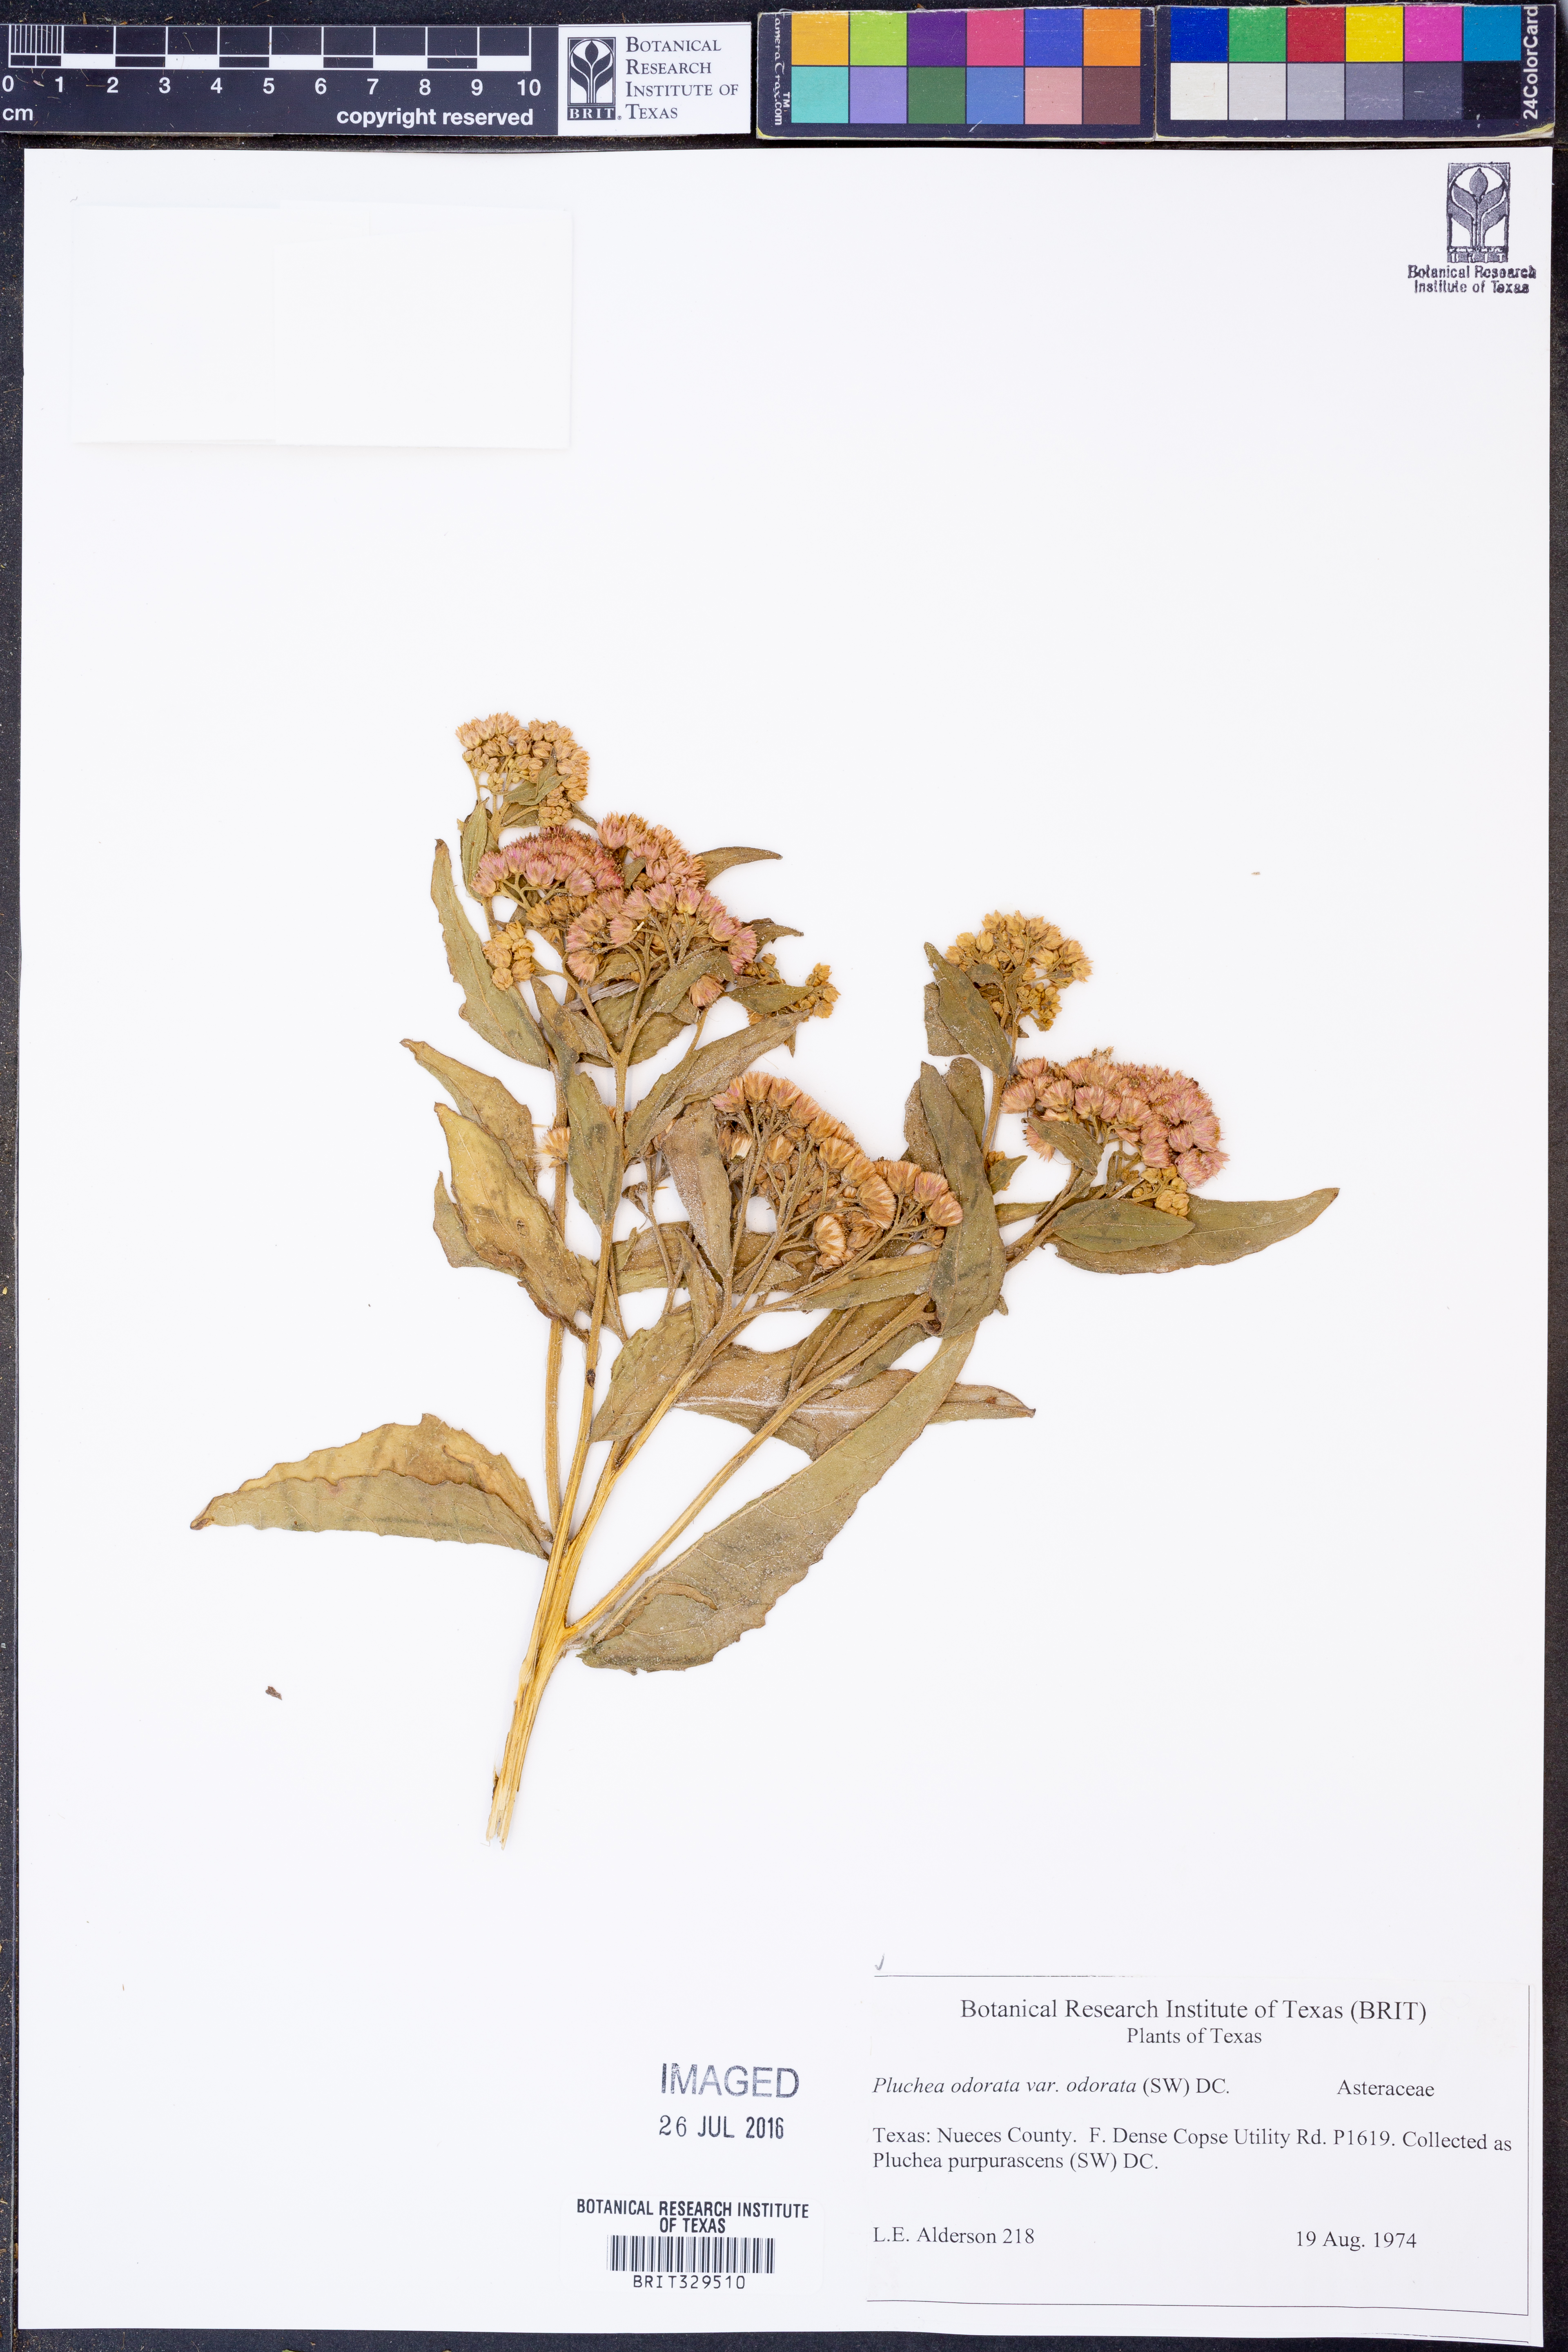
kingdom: Plantae
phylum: Tracheophyta
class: Magnoliopsida
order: Asterales
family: Asteraceae
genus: Pluchea
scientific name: Pluchea odorata
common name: Saltmarsh fleabane
